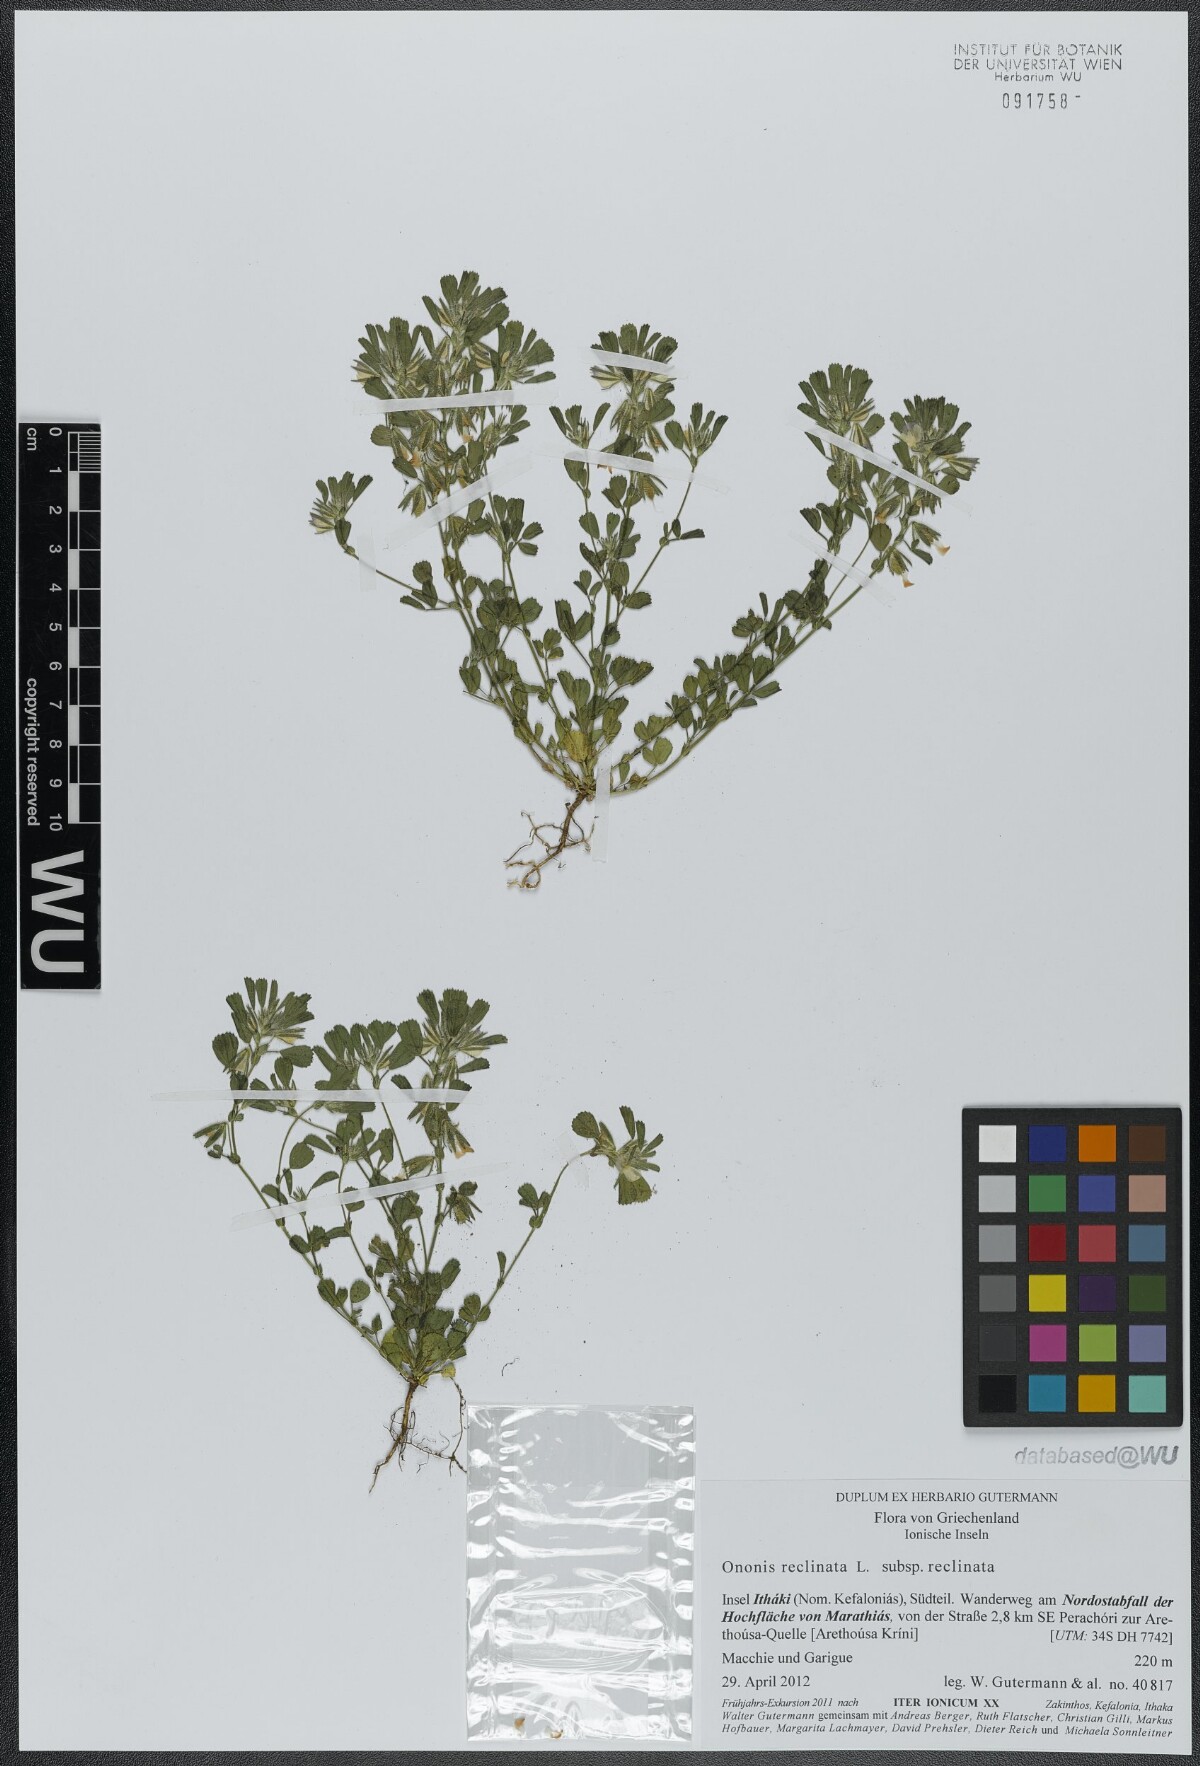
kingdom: Plantae
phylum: Tracheophyta
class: Magnoliopsida
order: Fabales
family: Fabaceae
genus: Ononis
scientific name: Ononis reclinata
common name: Small restharrow
